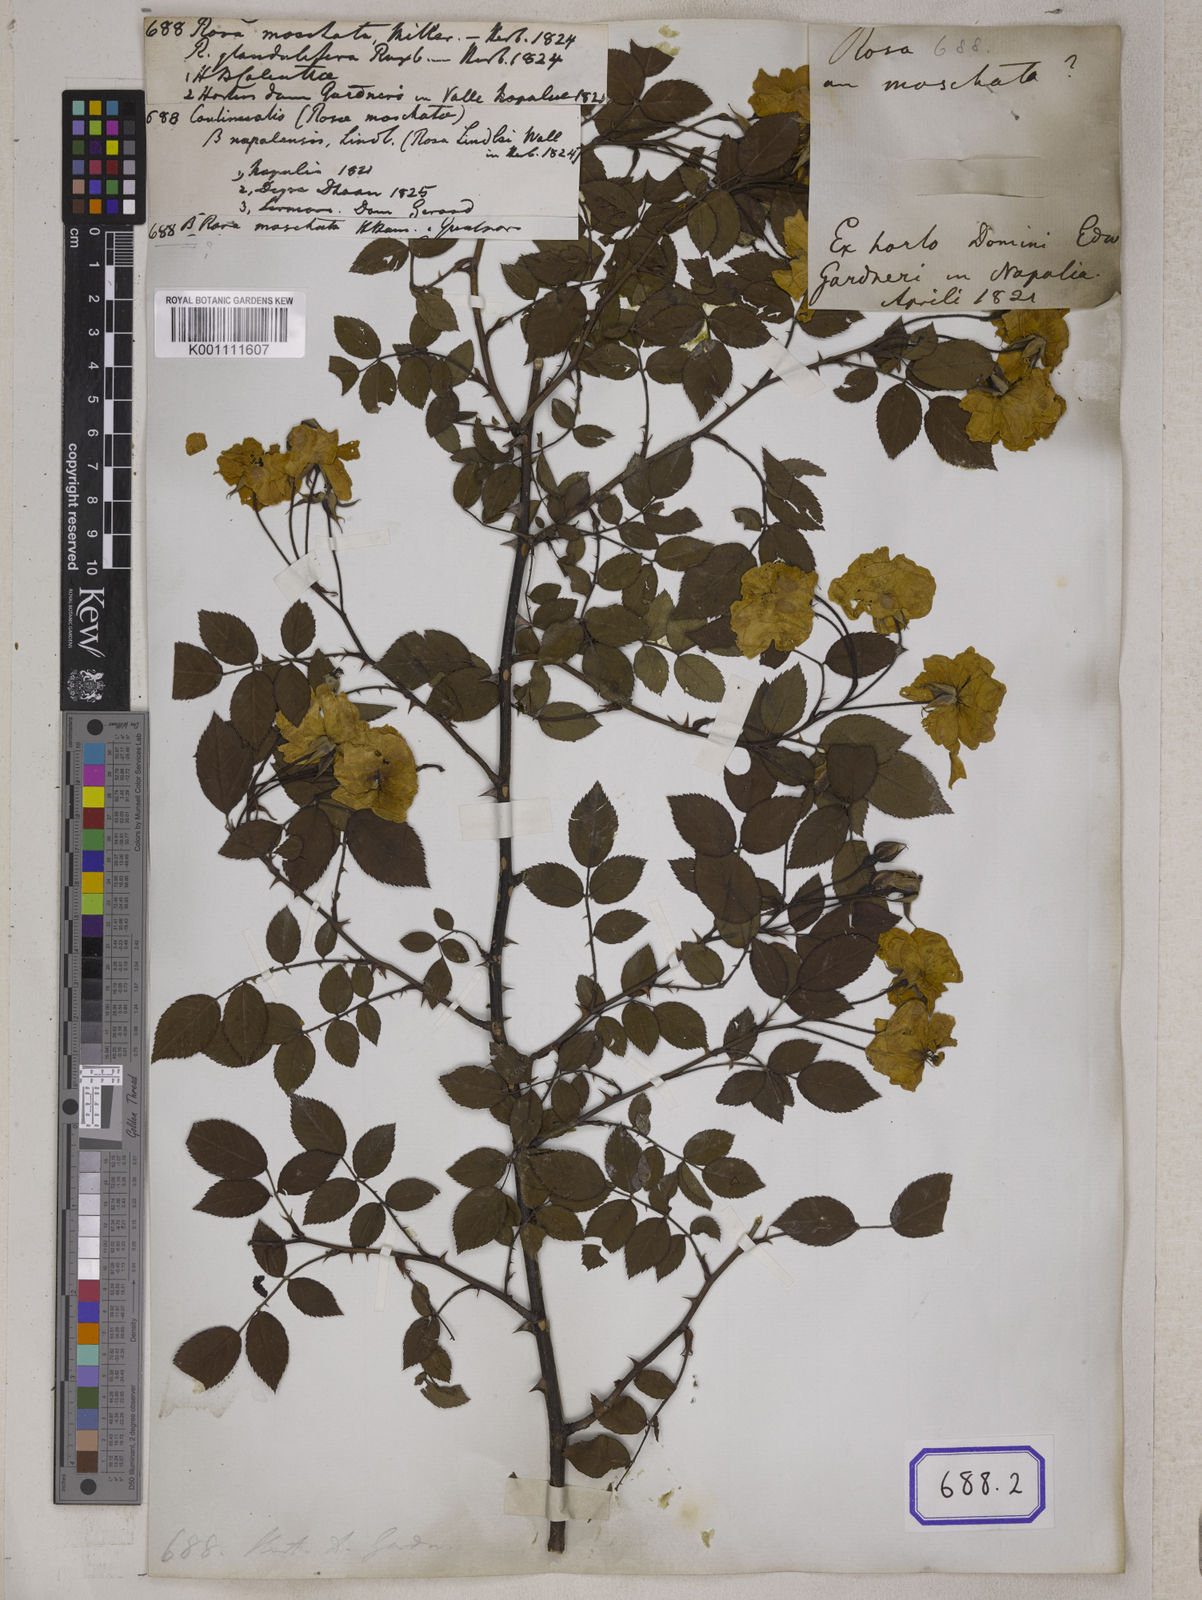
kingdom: Plantae
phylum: Tracheophyta
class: Magnoliopsida
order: Rosales
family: Rosaceae
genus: Rosa
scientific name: Rosa
